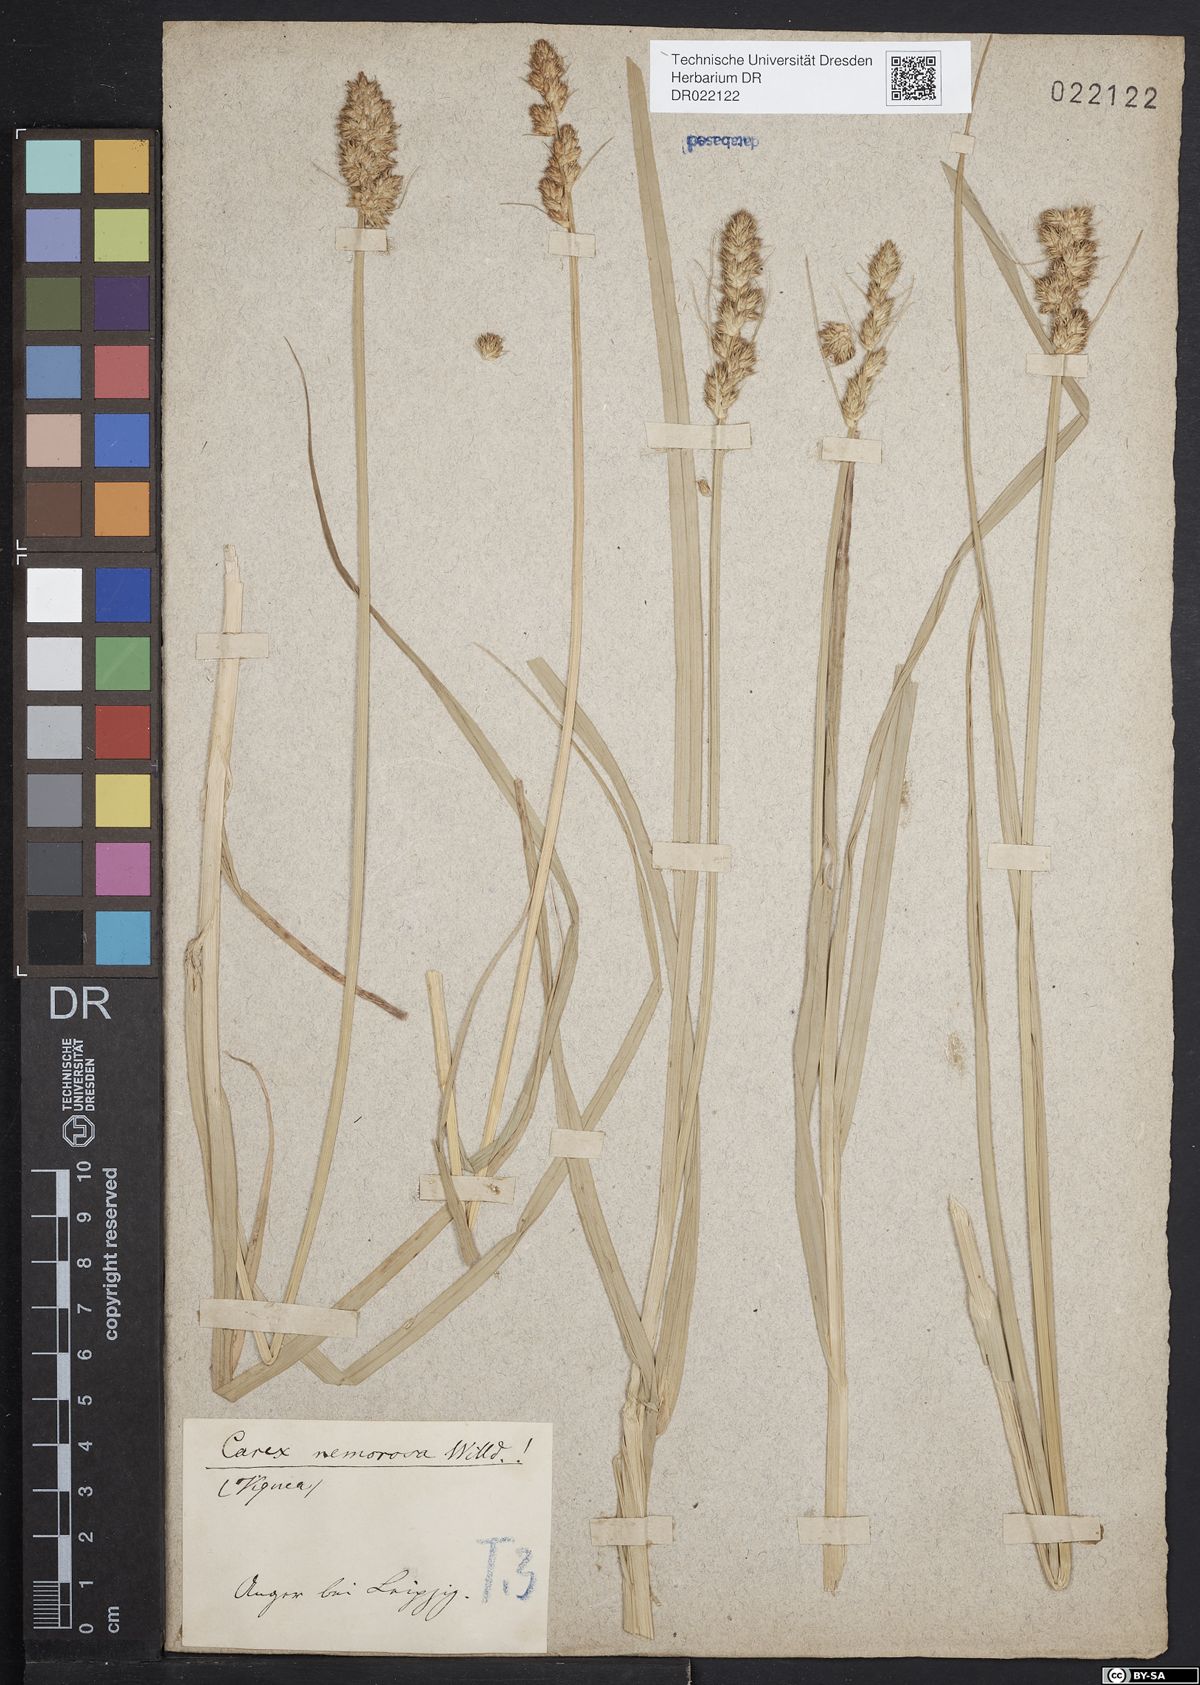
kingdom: Plantae
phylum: Tracheophyta
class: Liliopsida
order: Poales
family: Cyperaceae
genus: Carex
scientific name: Carex otrubae
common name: False fox-sedge
